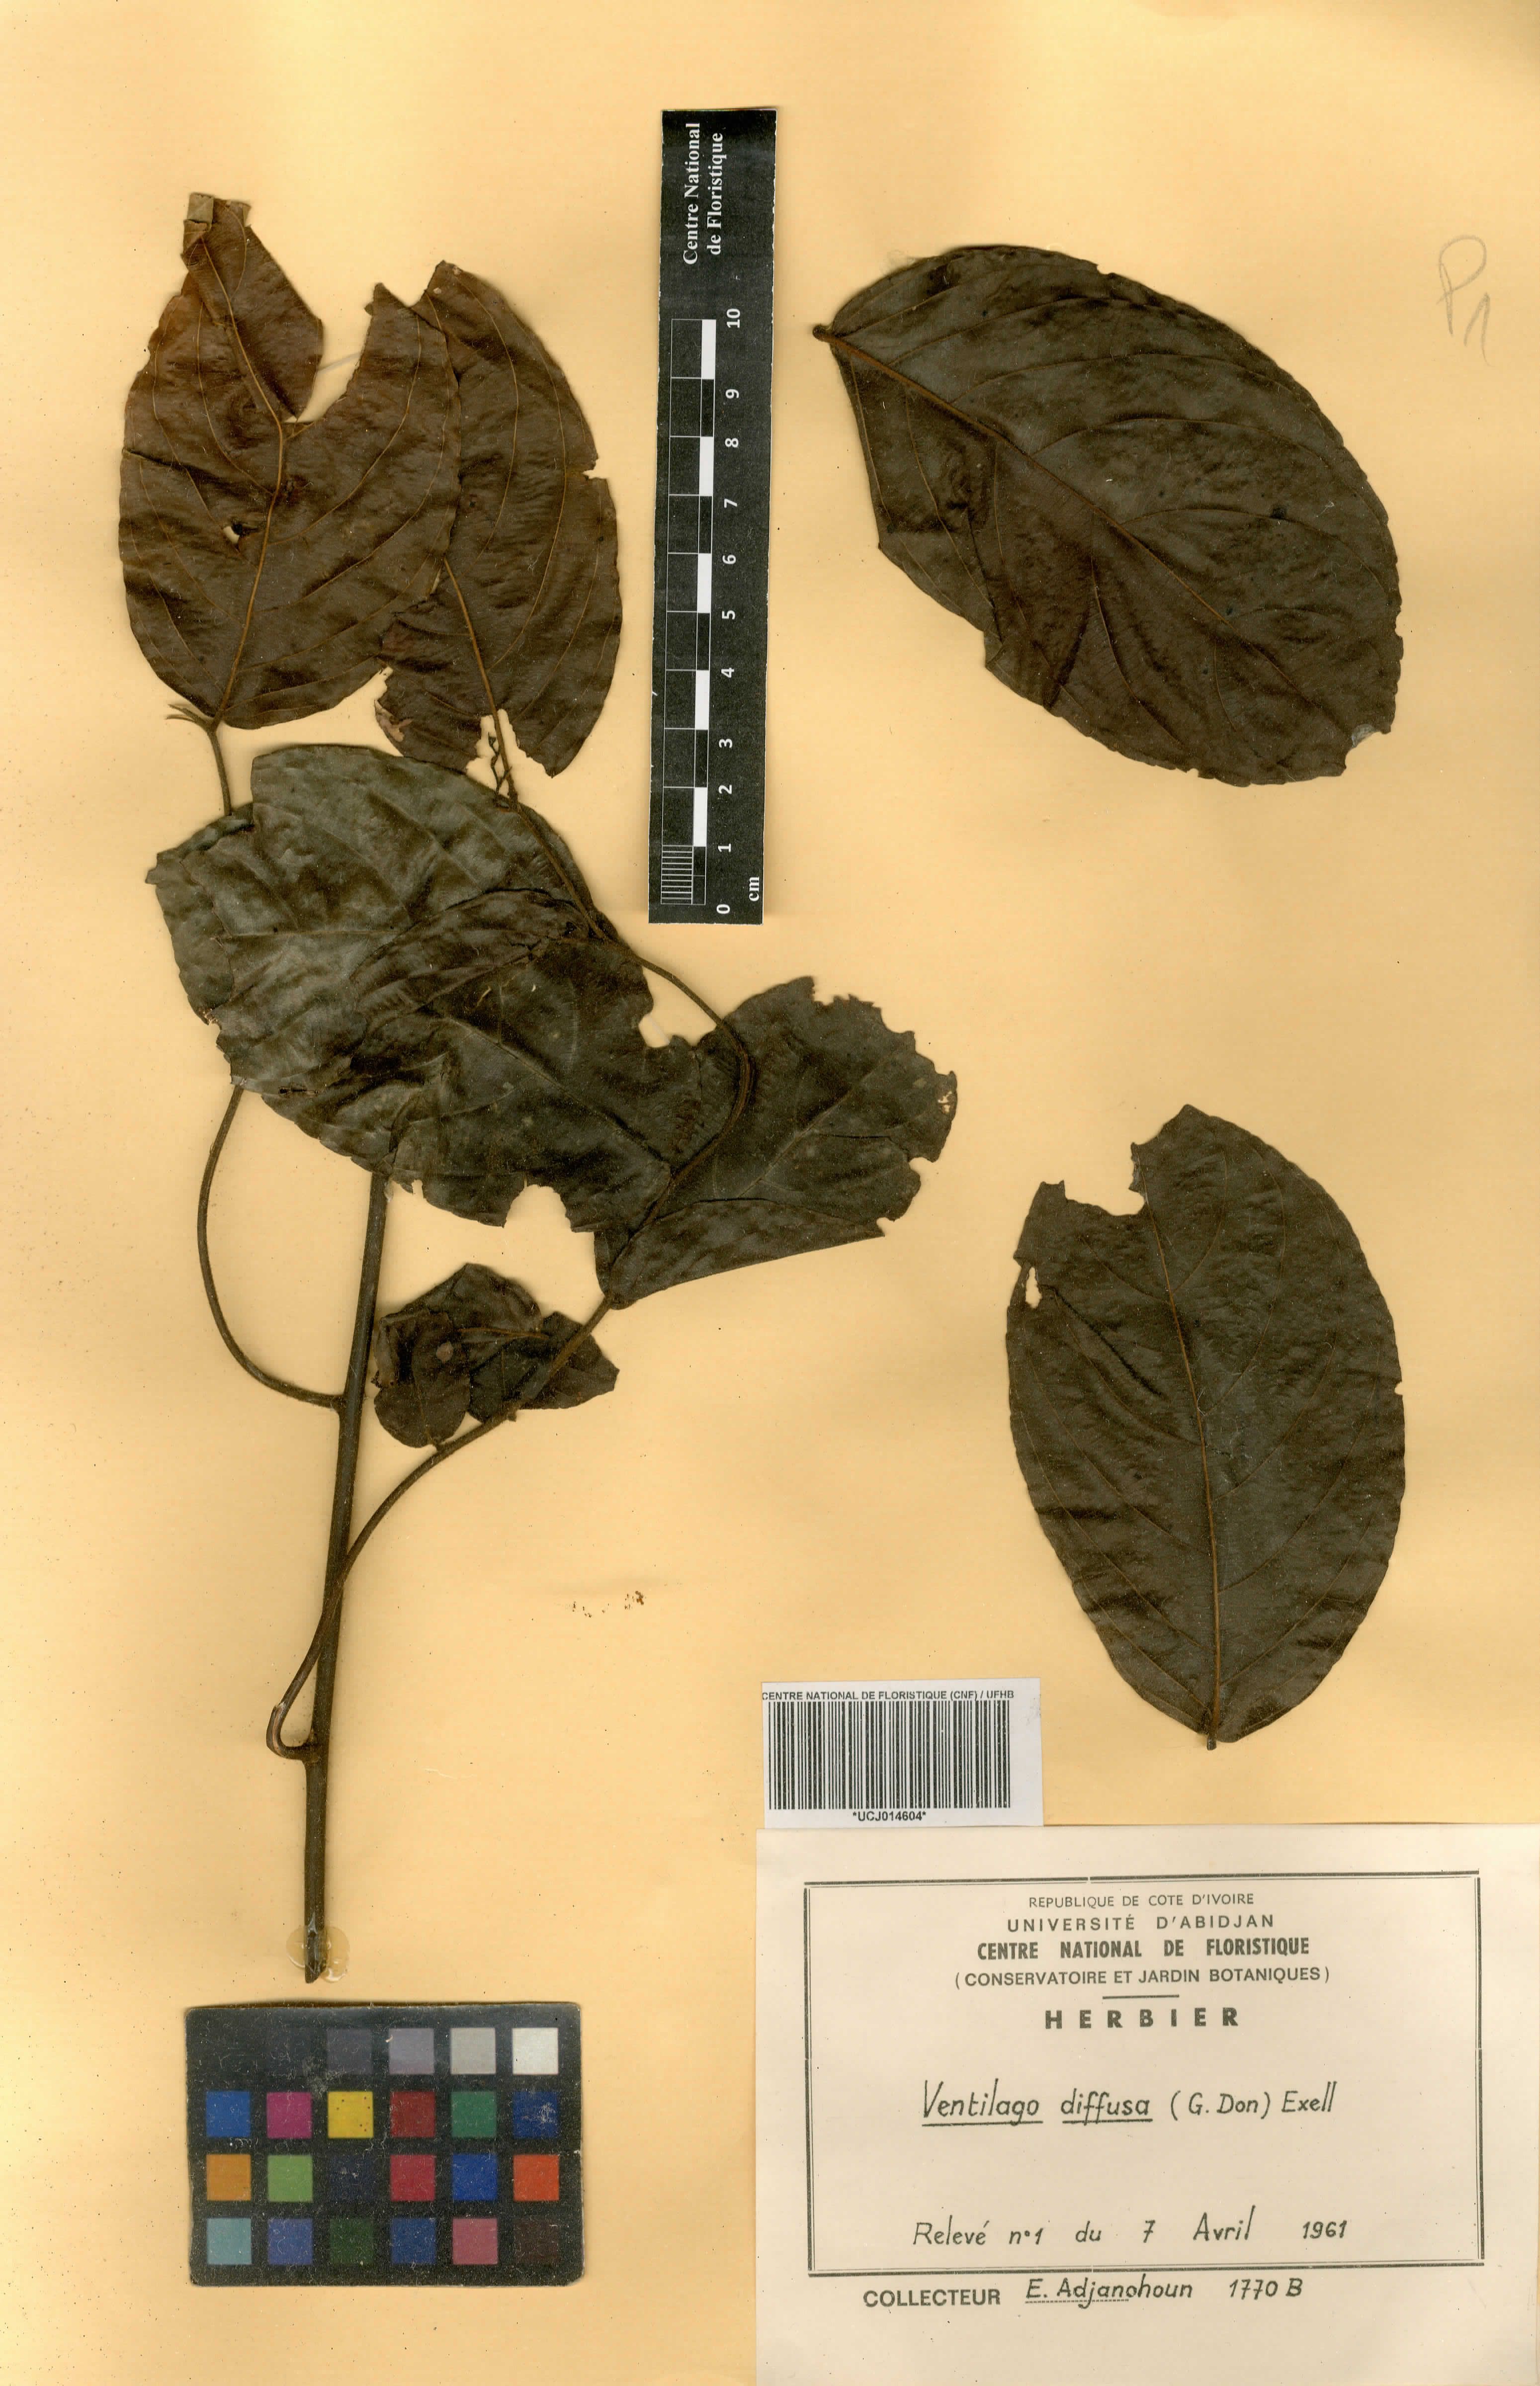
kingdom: Plantae
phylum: Tracheophyta
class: Magnoliopsida
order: Rosales
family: Rhamnaceae
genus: Ventilago
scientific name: Ventilago diffusa
